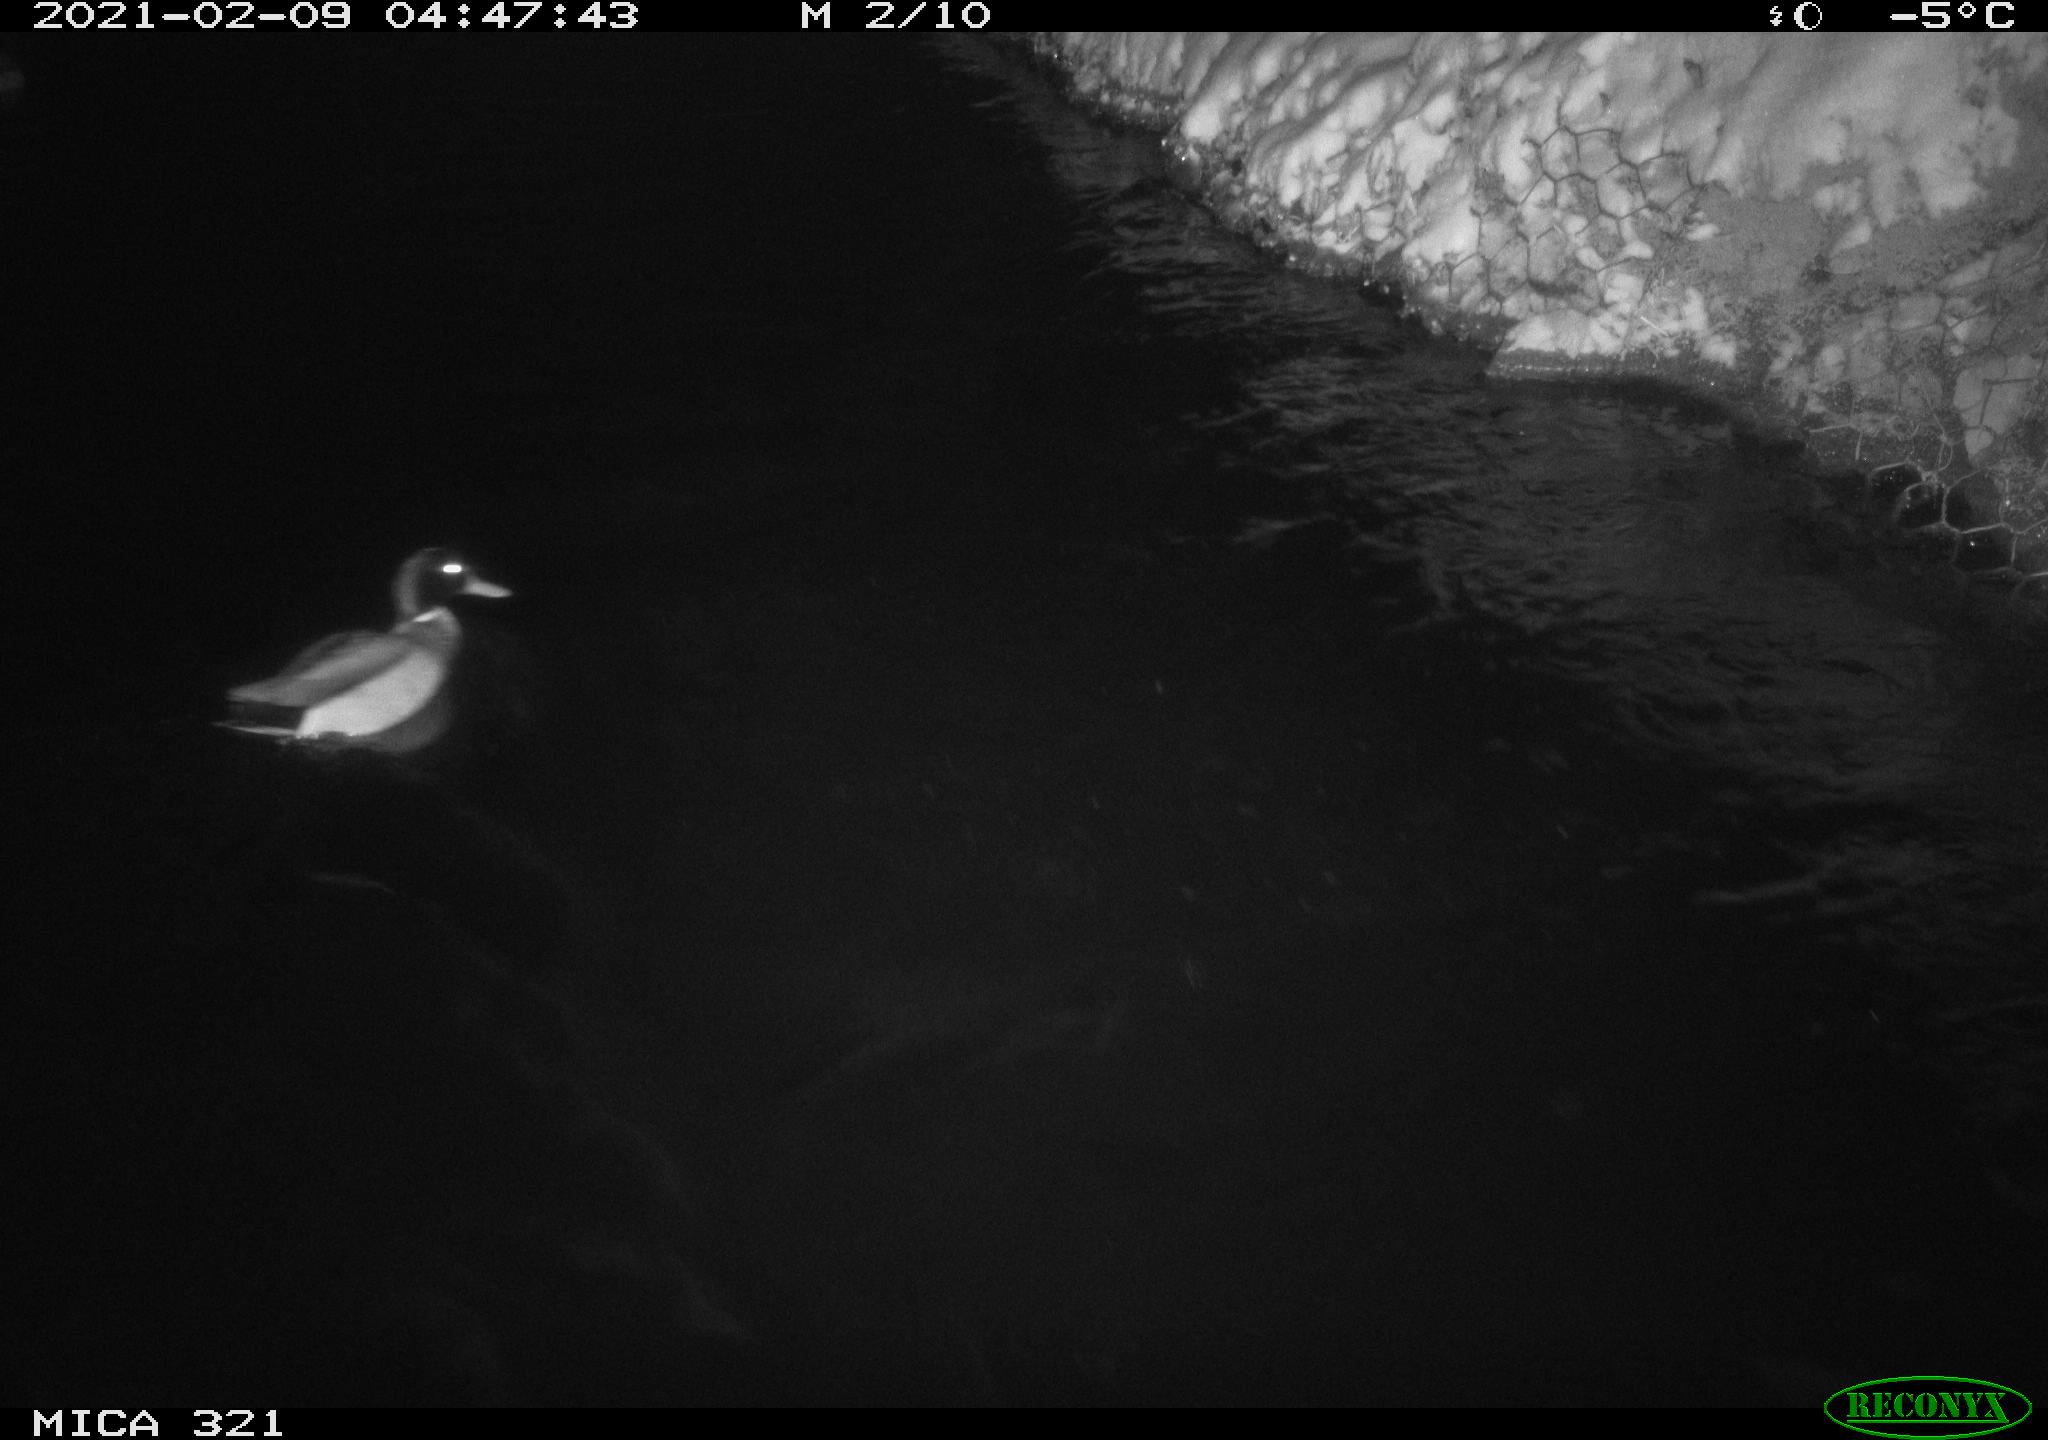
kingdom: Animalia
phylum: Chordata
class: Aves
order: Anseriformes
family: Anatidae
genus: Anas
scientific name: Anas platyrhynchos
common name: Mallard
